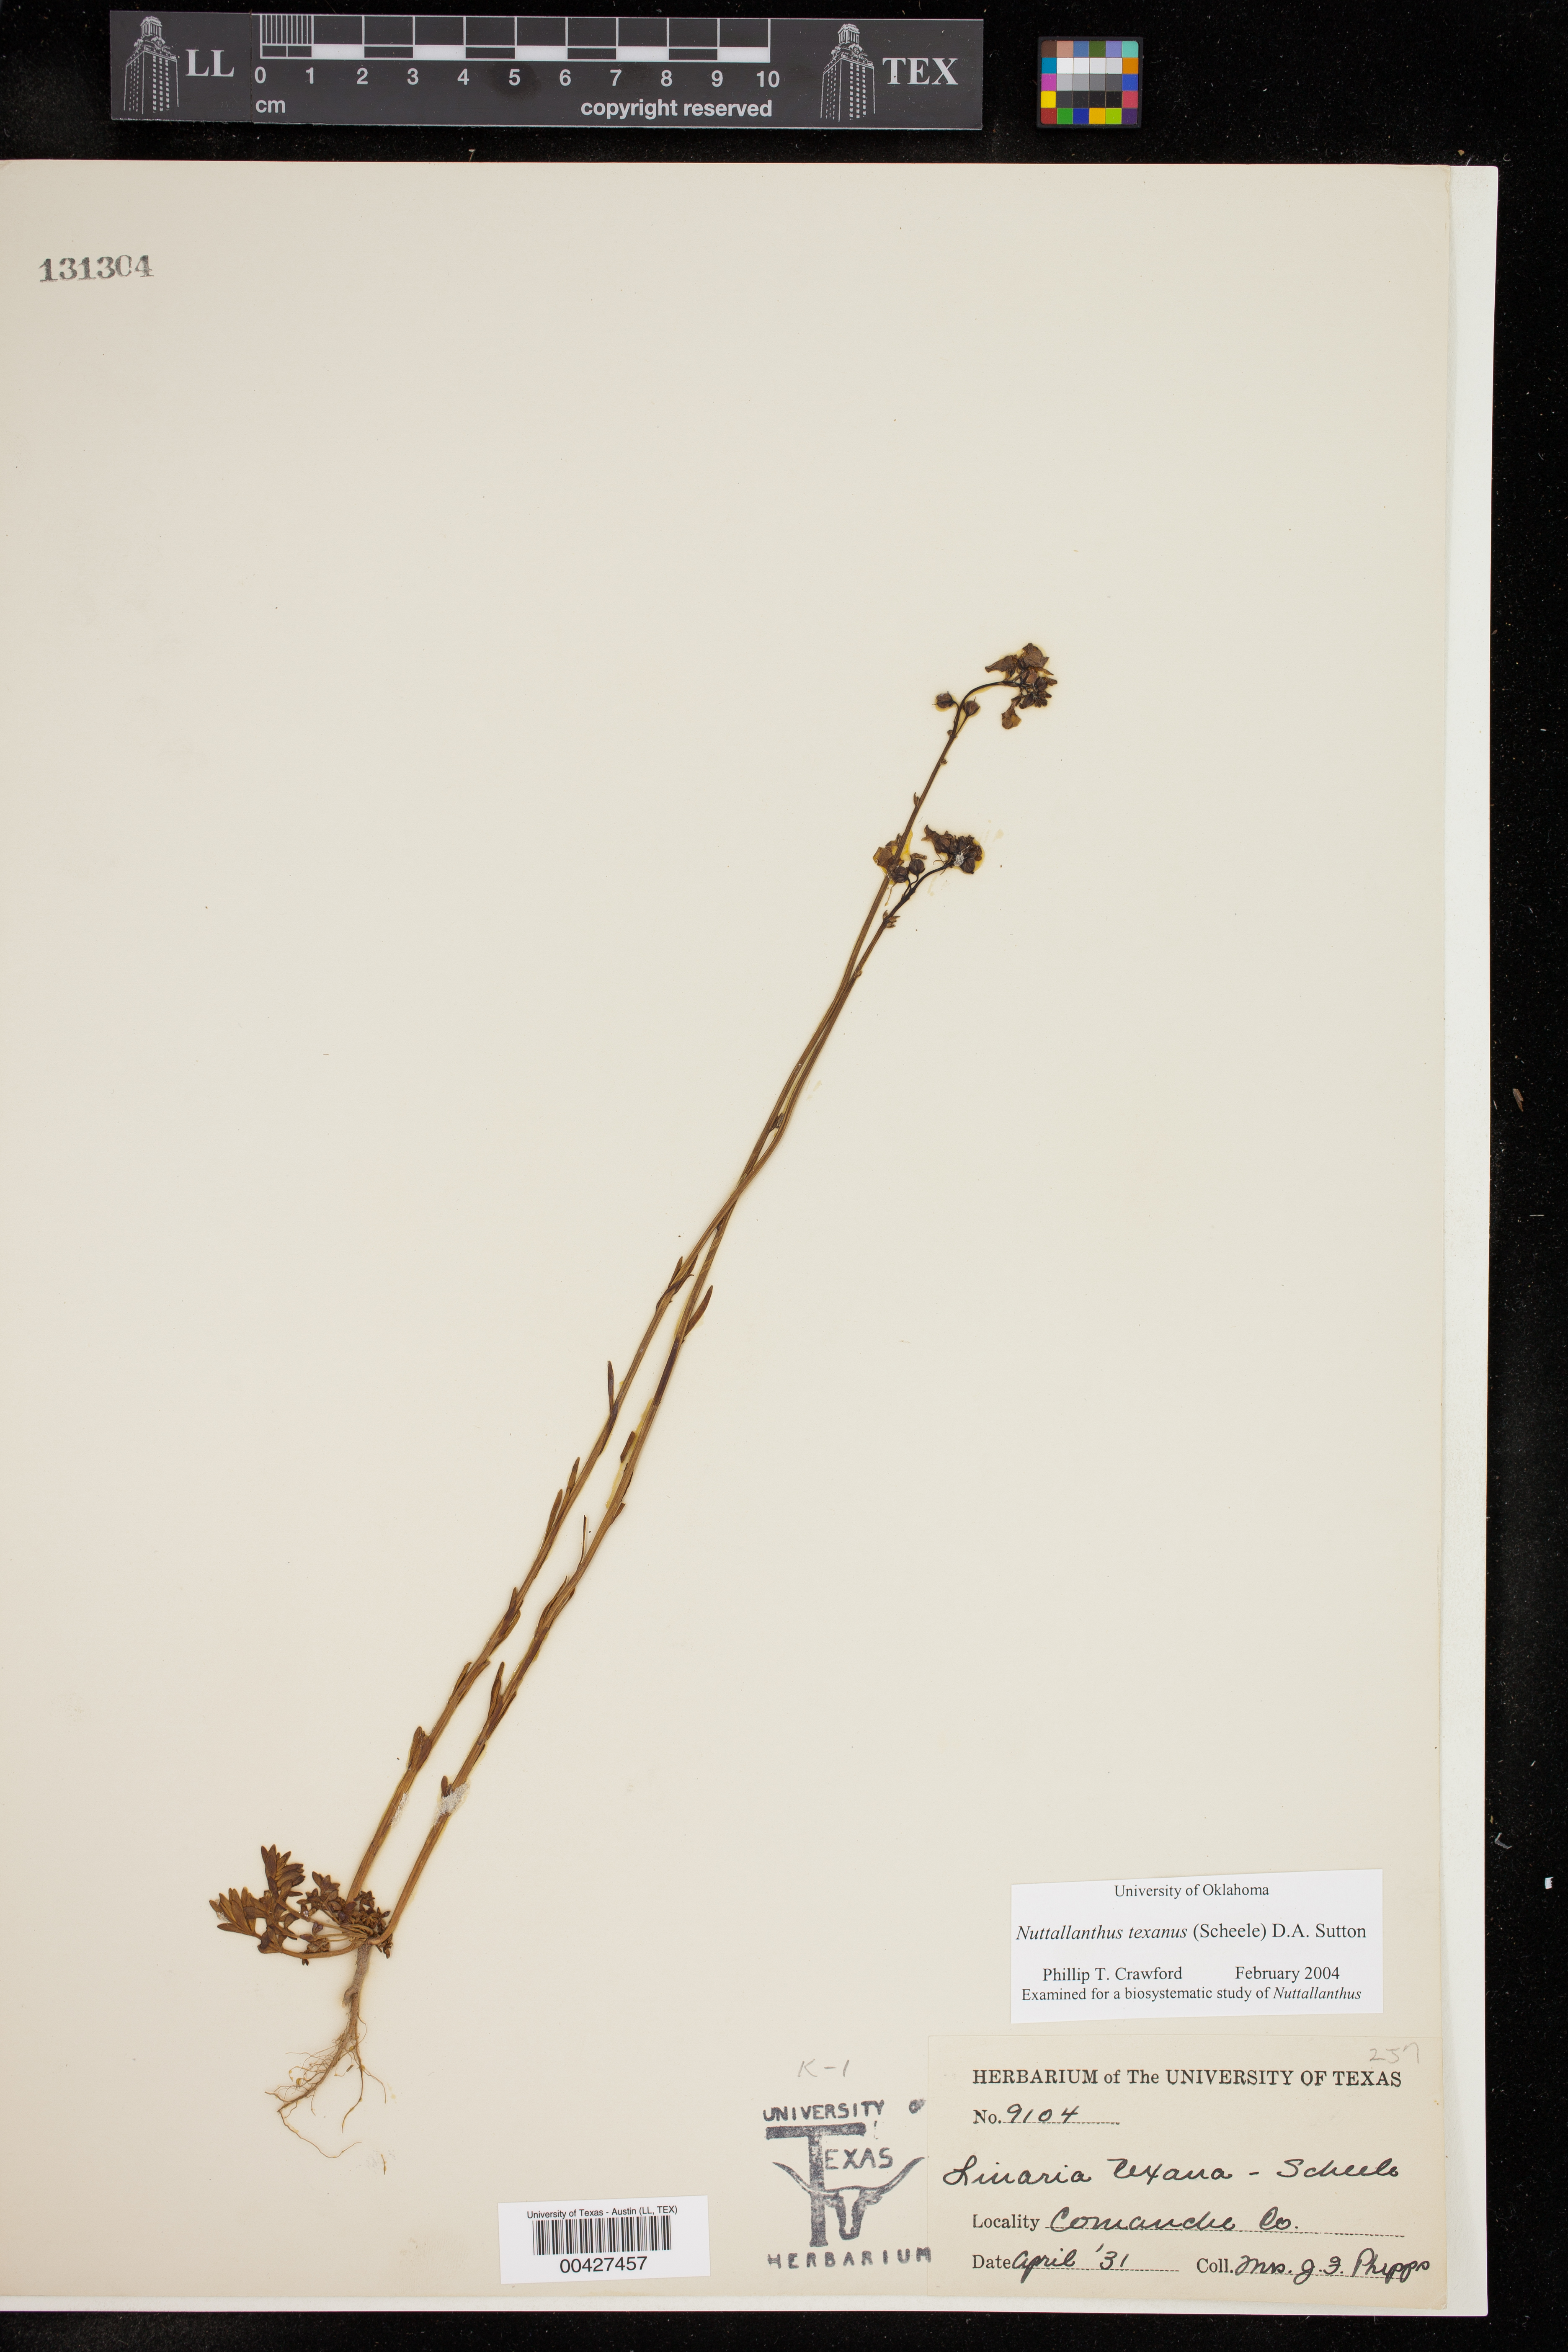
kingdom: Plantae
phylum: Tracheophyta
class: Magnoliopsida
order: Lamiales
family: Plantaginaceae
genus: Nuttallanthus
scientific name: Nuttallanthus texanus
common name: Texas toadflax
